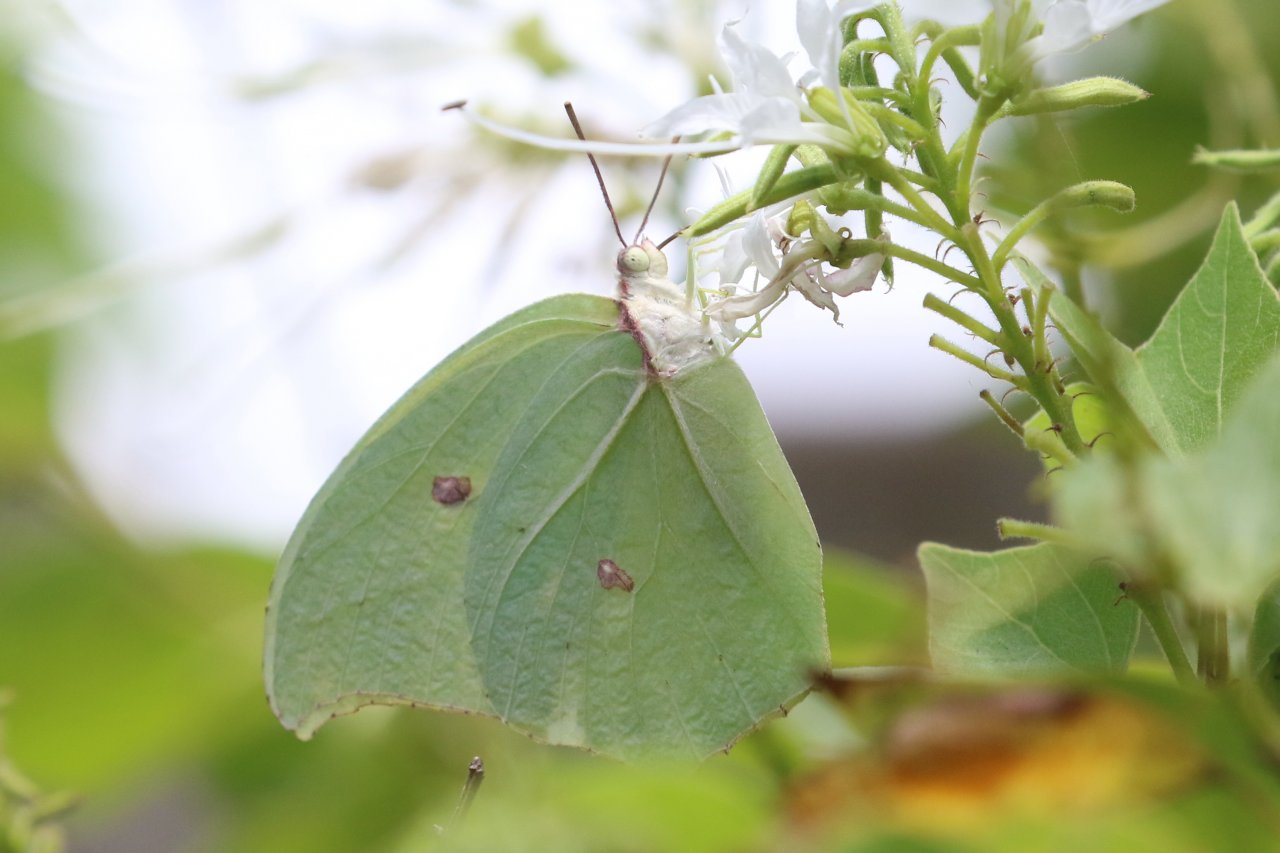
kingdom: Animalia
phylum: Arthropoda
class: Insecta
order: Lepidoptera
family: Pieridae
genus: Anteos
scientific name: Anteos maerula
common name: Yellow Angled-Sulphur
